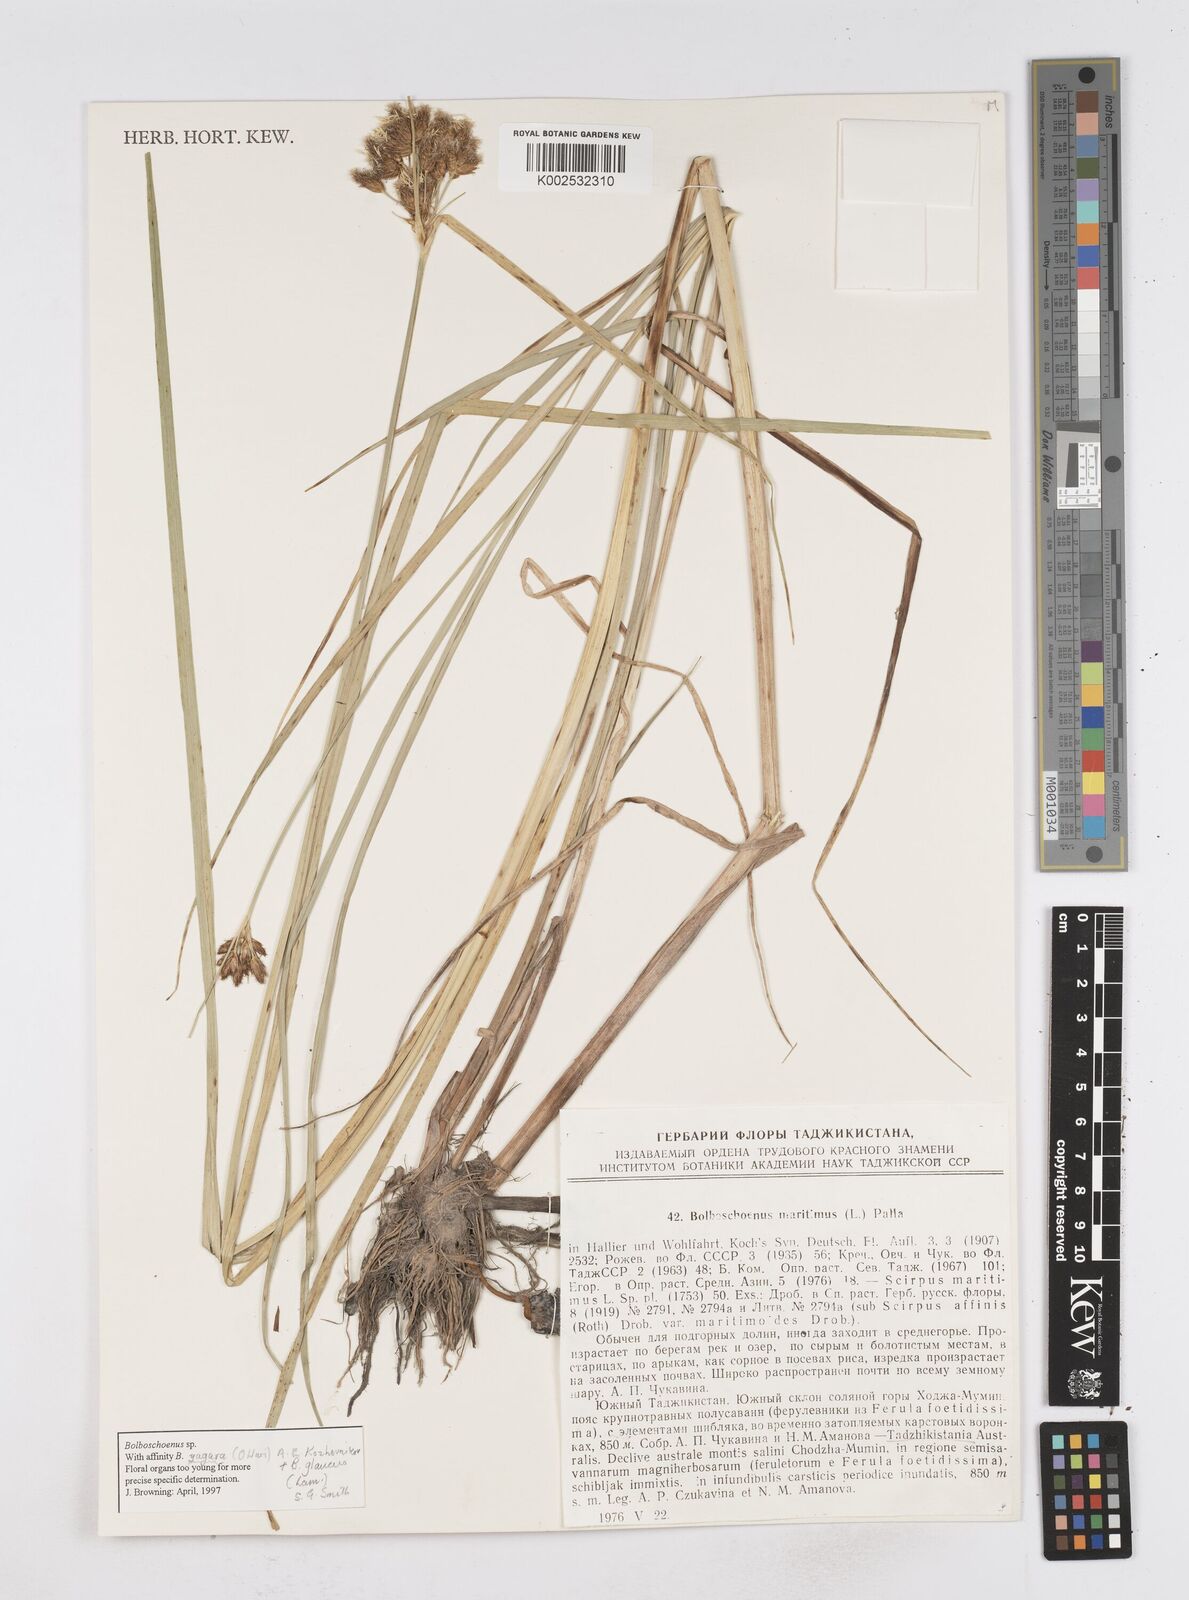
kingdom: Plantae
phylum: Tracheophyta
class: Liliopsida
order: Poales
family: Cyperaceae
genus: Bolboschoenus
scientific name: Bolboschoenus maritimus
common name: Sea club-rush
